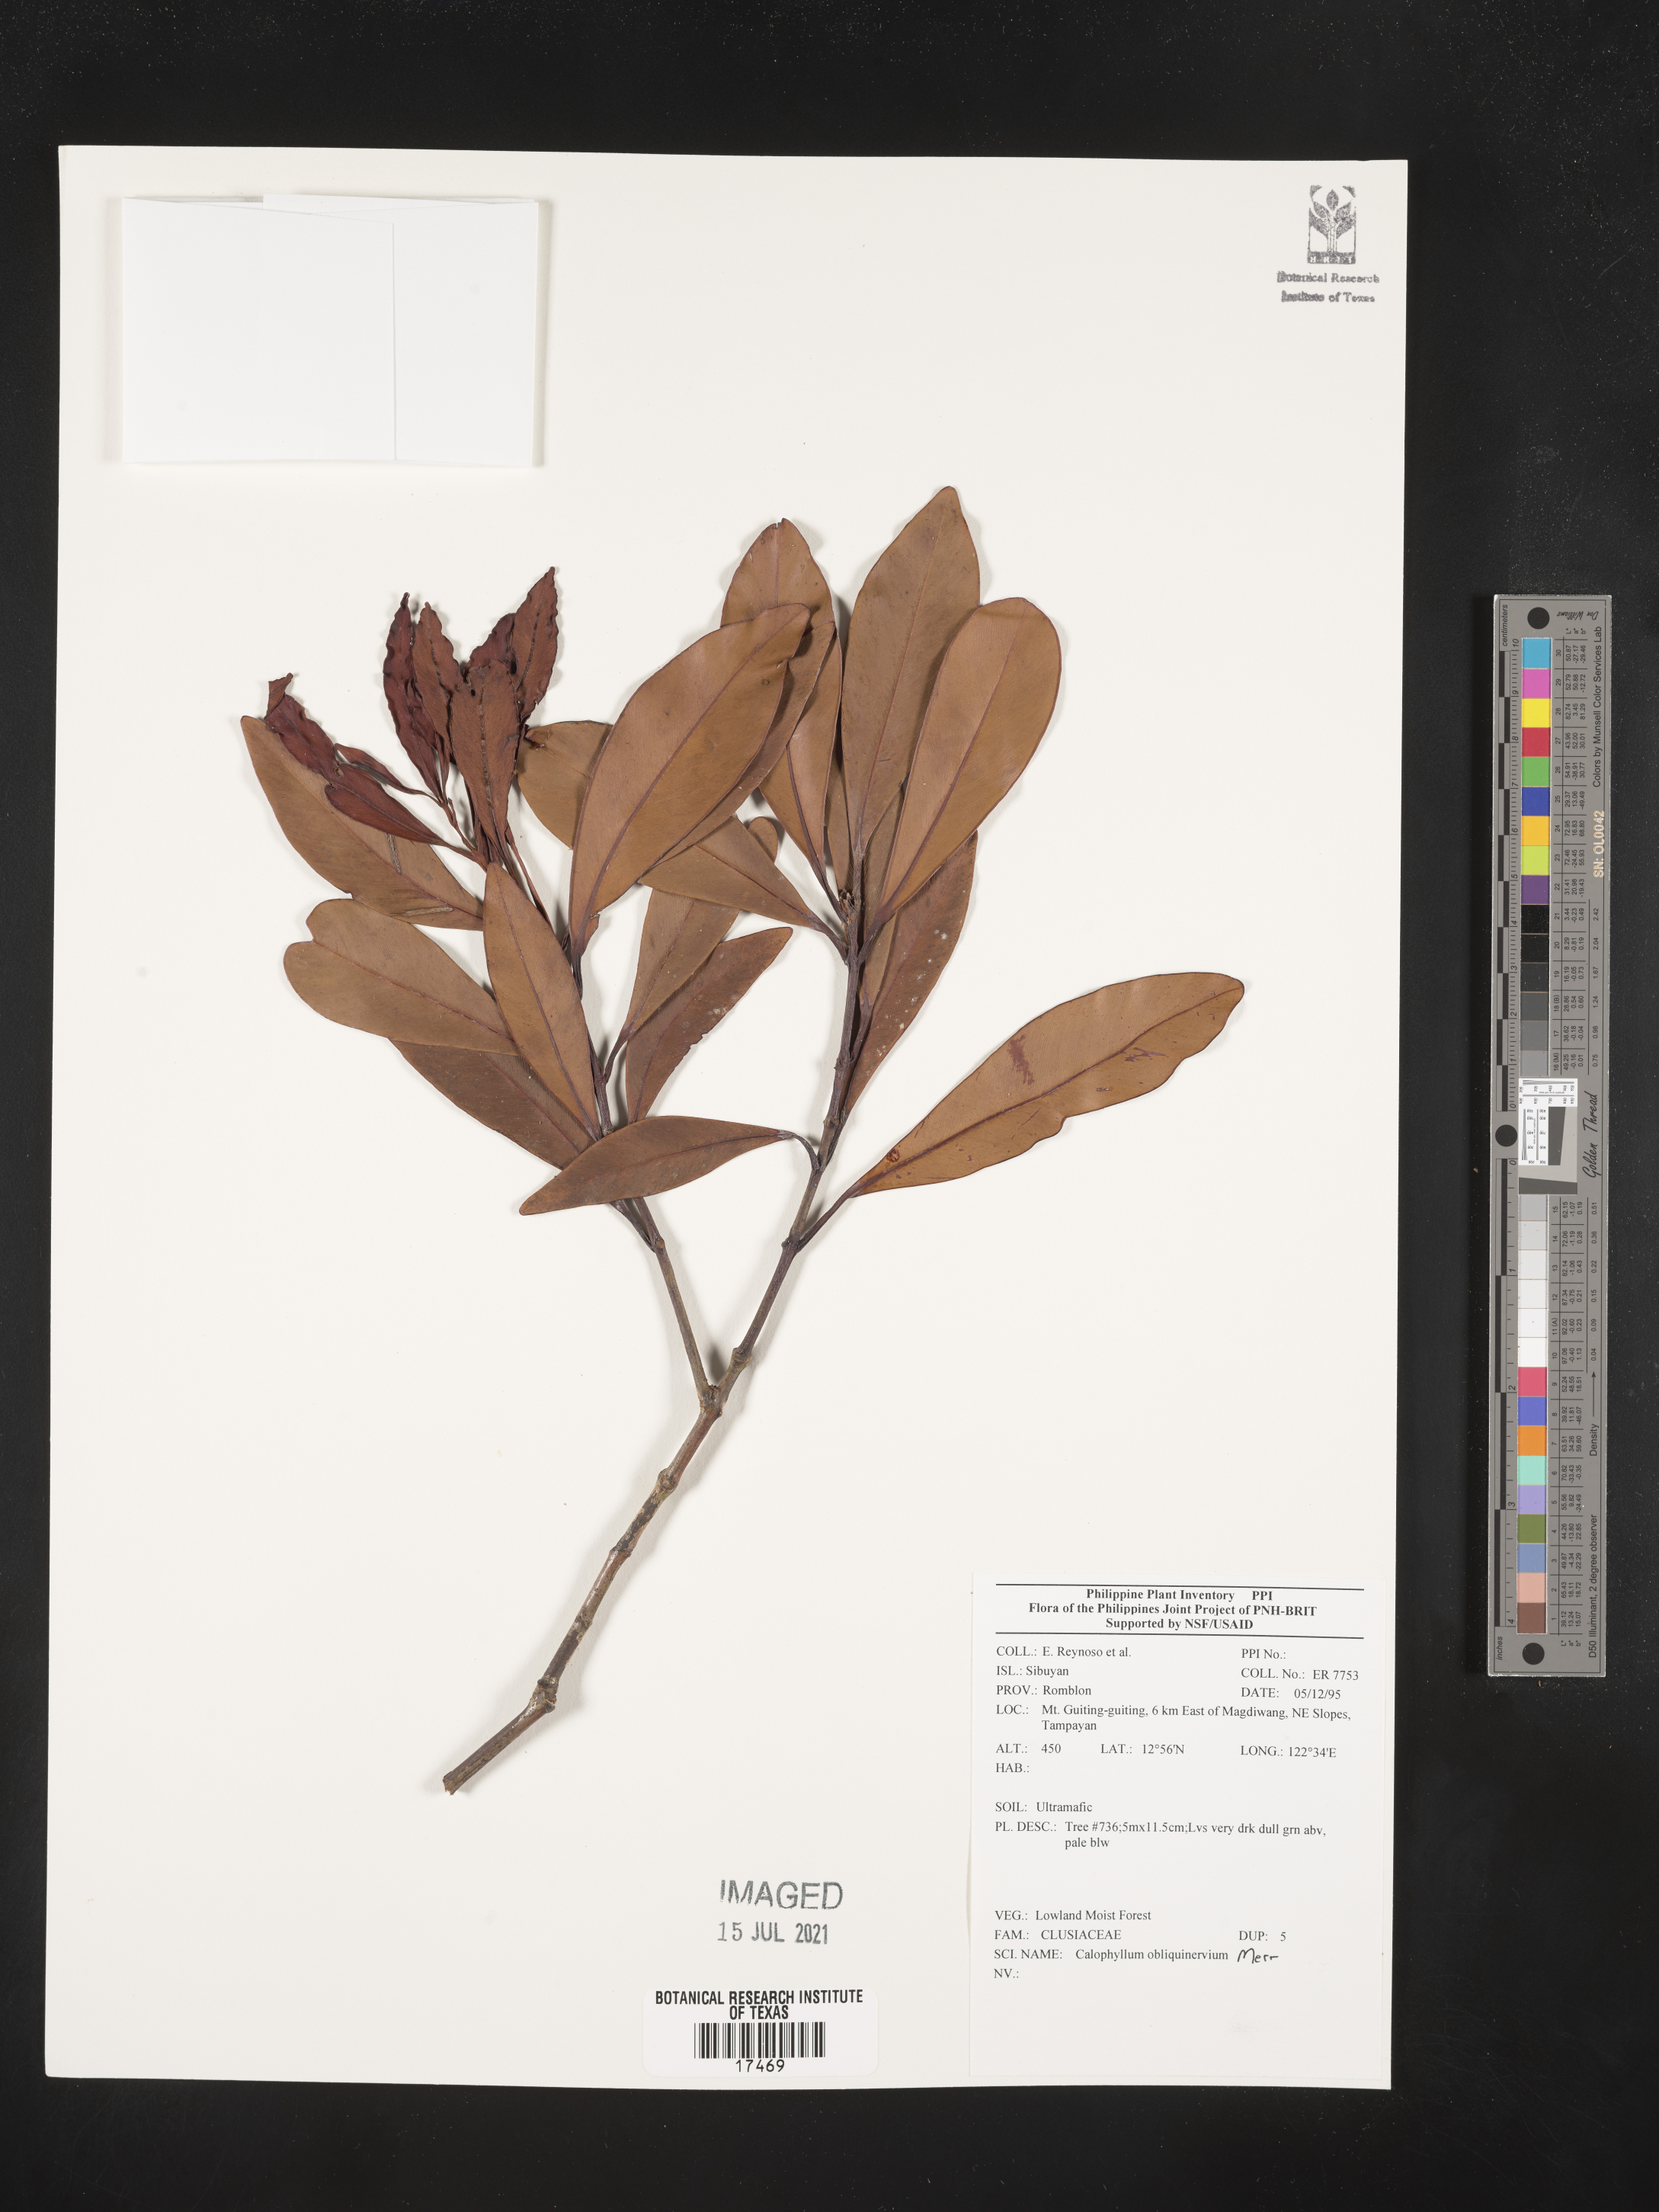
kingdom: Plantae
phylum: Tracheophyta
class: Magnoliopsida
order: Malpighiales
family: Calophyllaceae
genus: Calophyllum
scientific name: Calophyllum obliquinervium
